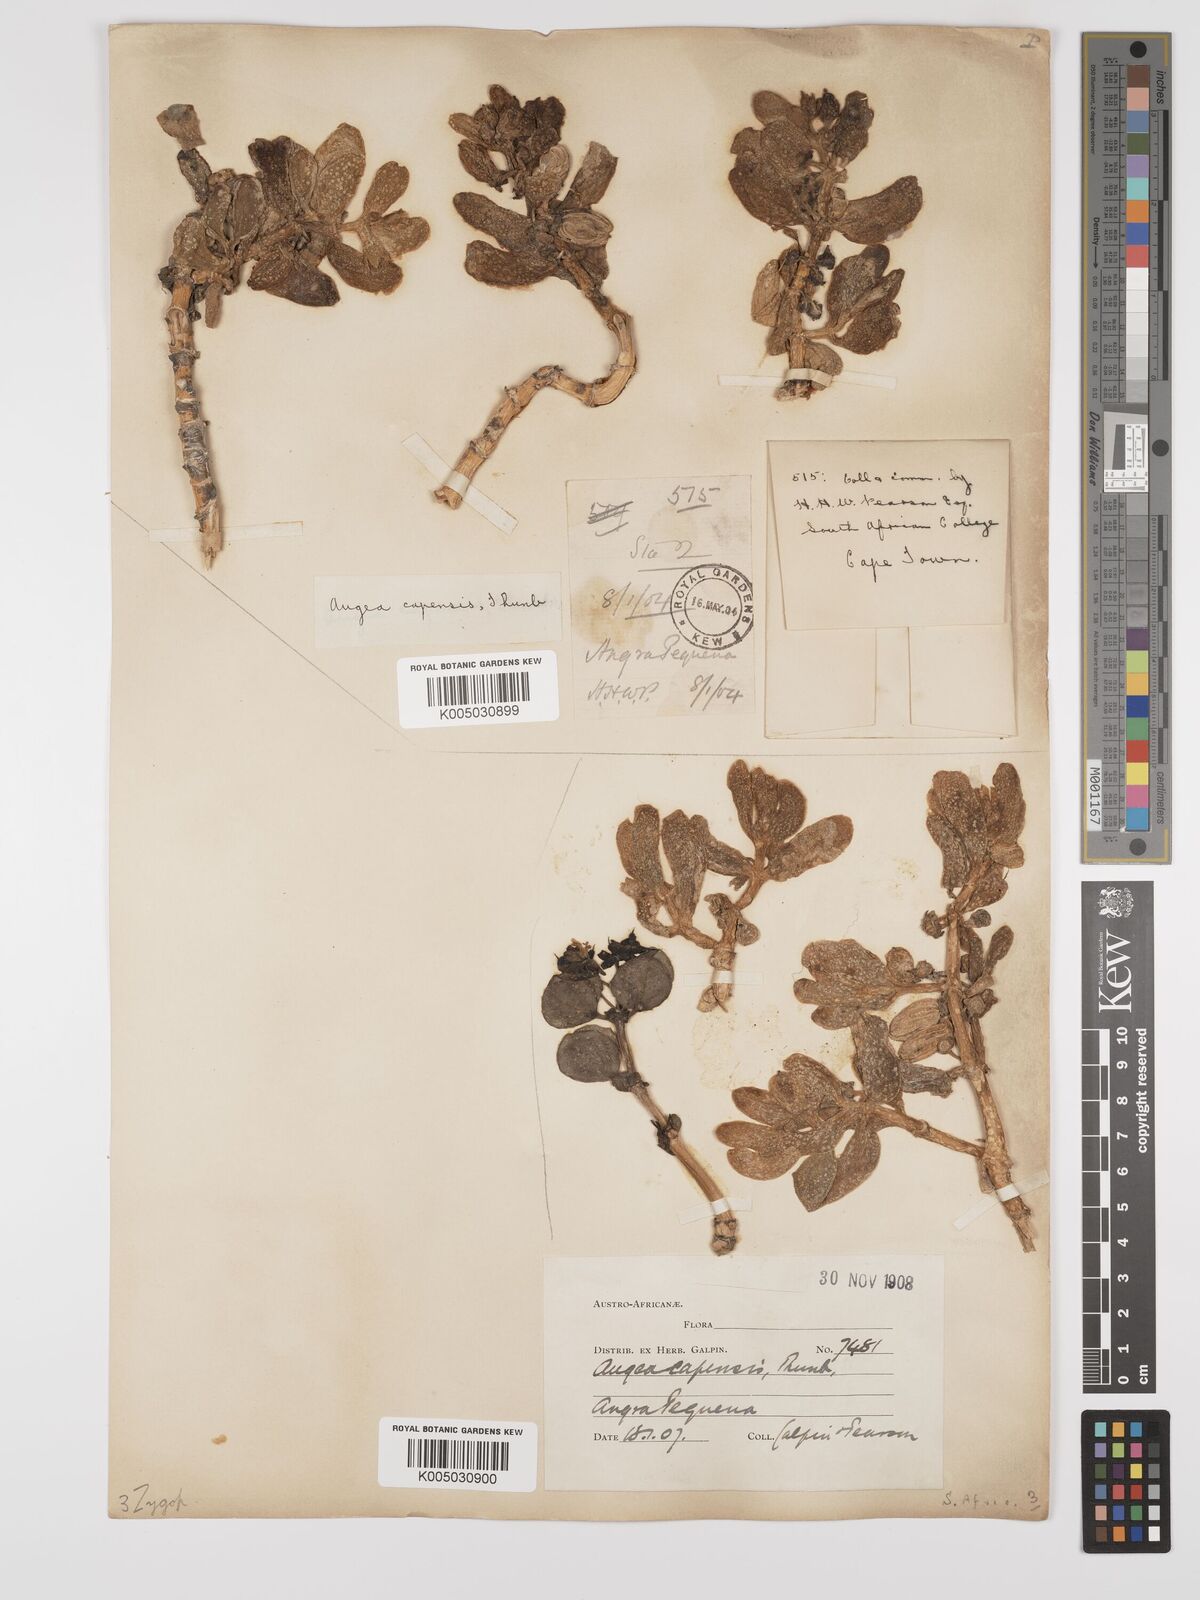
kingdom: Plantae
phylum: Tracheophyta
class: Magnoliopsida
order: Zygophyllales
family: Zygophyllaceae
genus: Augea
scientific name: Augea capensis
